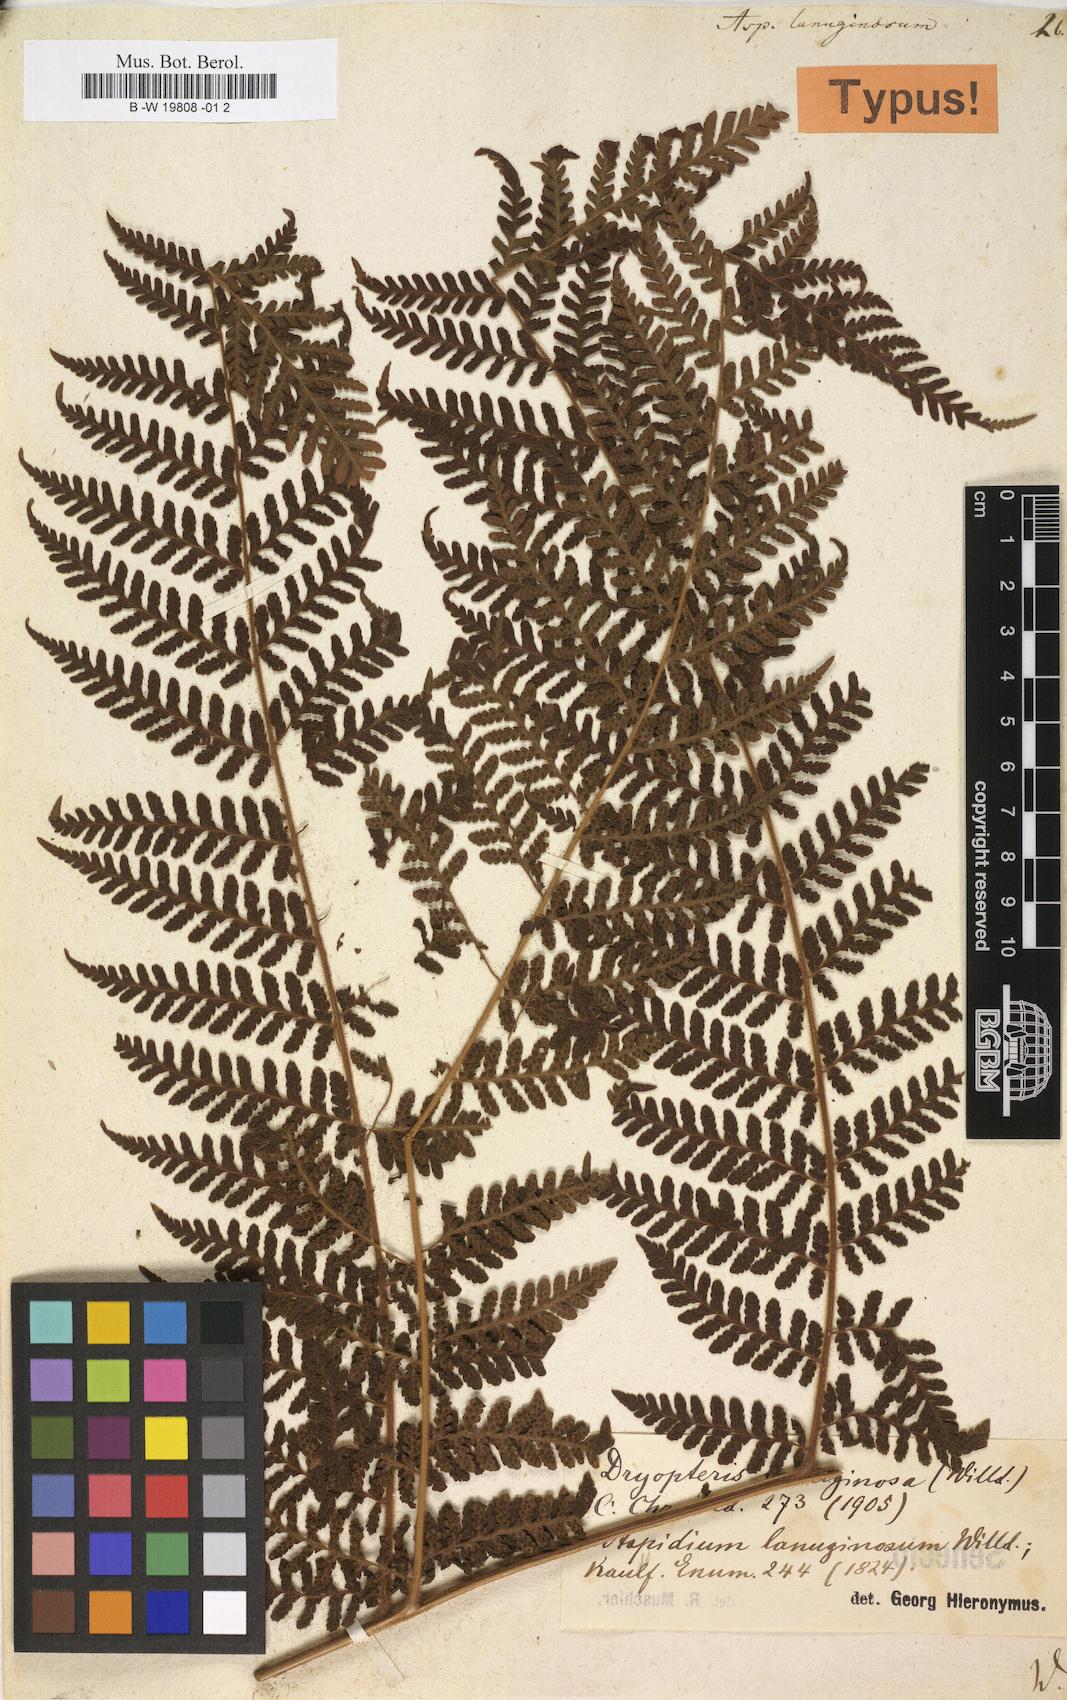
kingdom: Plantae
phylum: Tracheophyta
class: Polypodiopsida
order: Polypodiales
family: Dryopteridaceae
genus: Megalastrum
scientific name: Megalastrum lanuginosum
